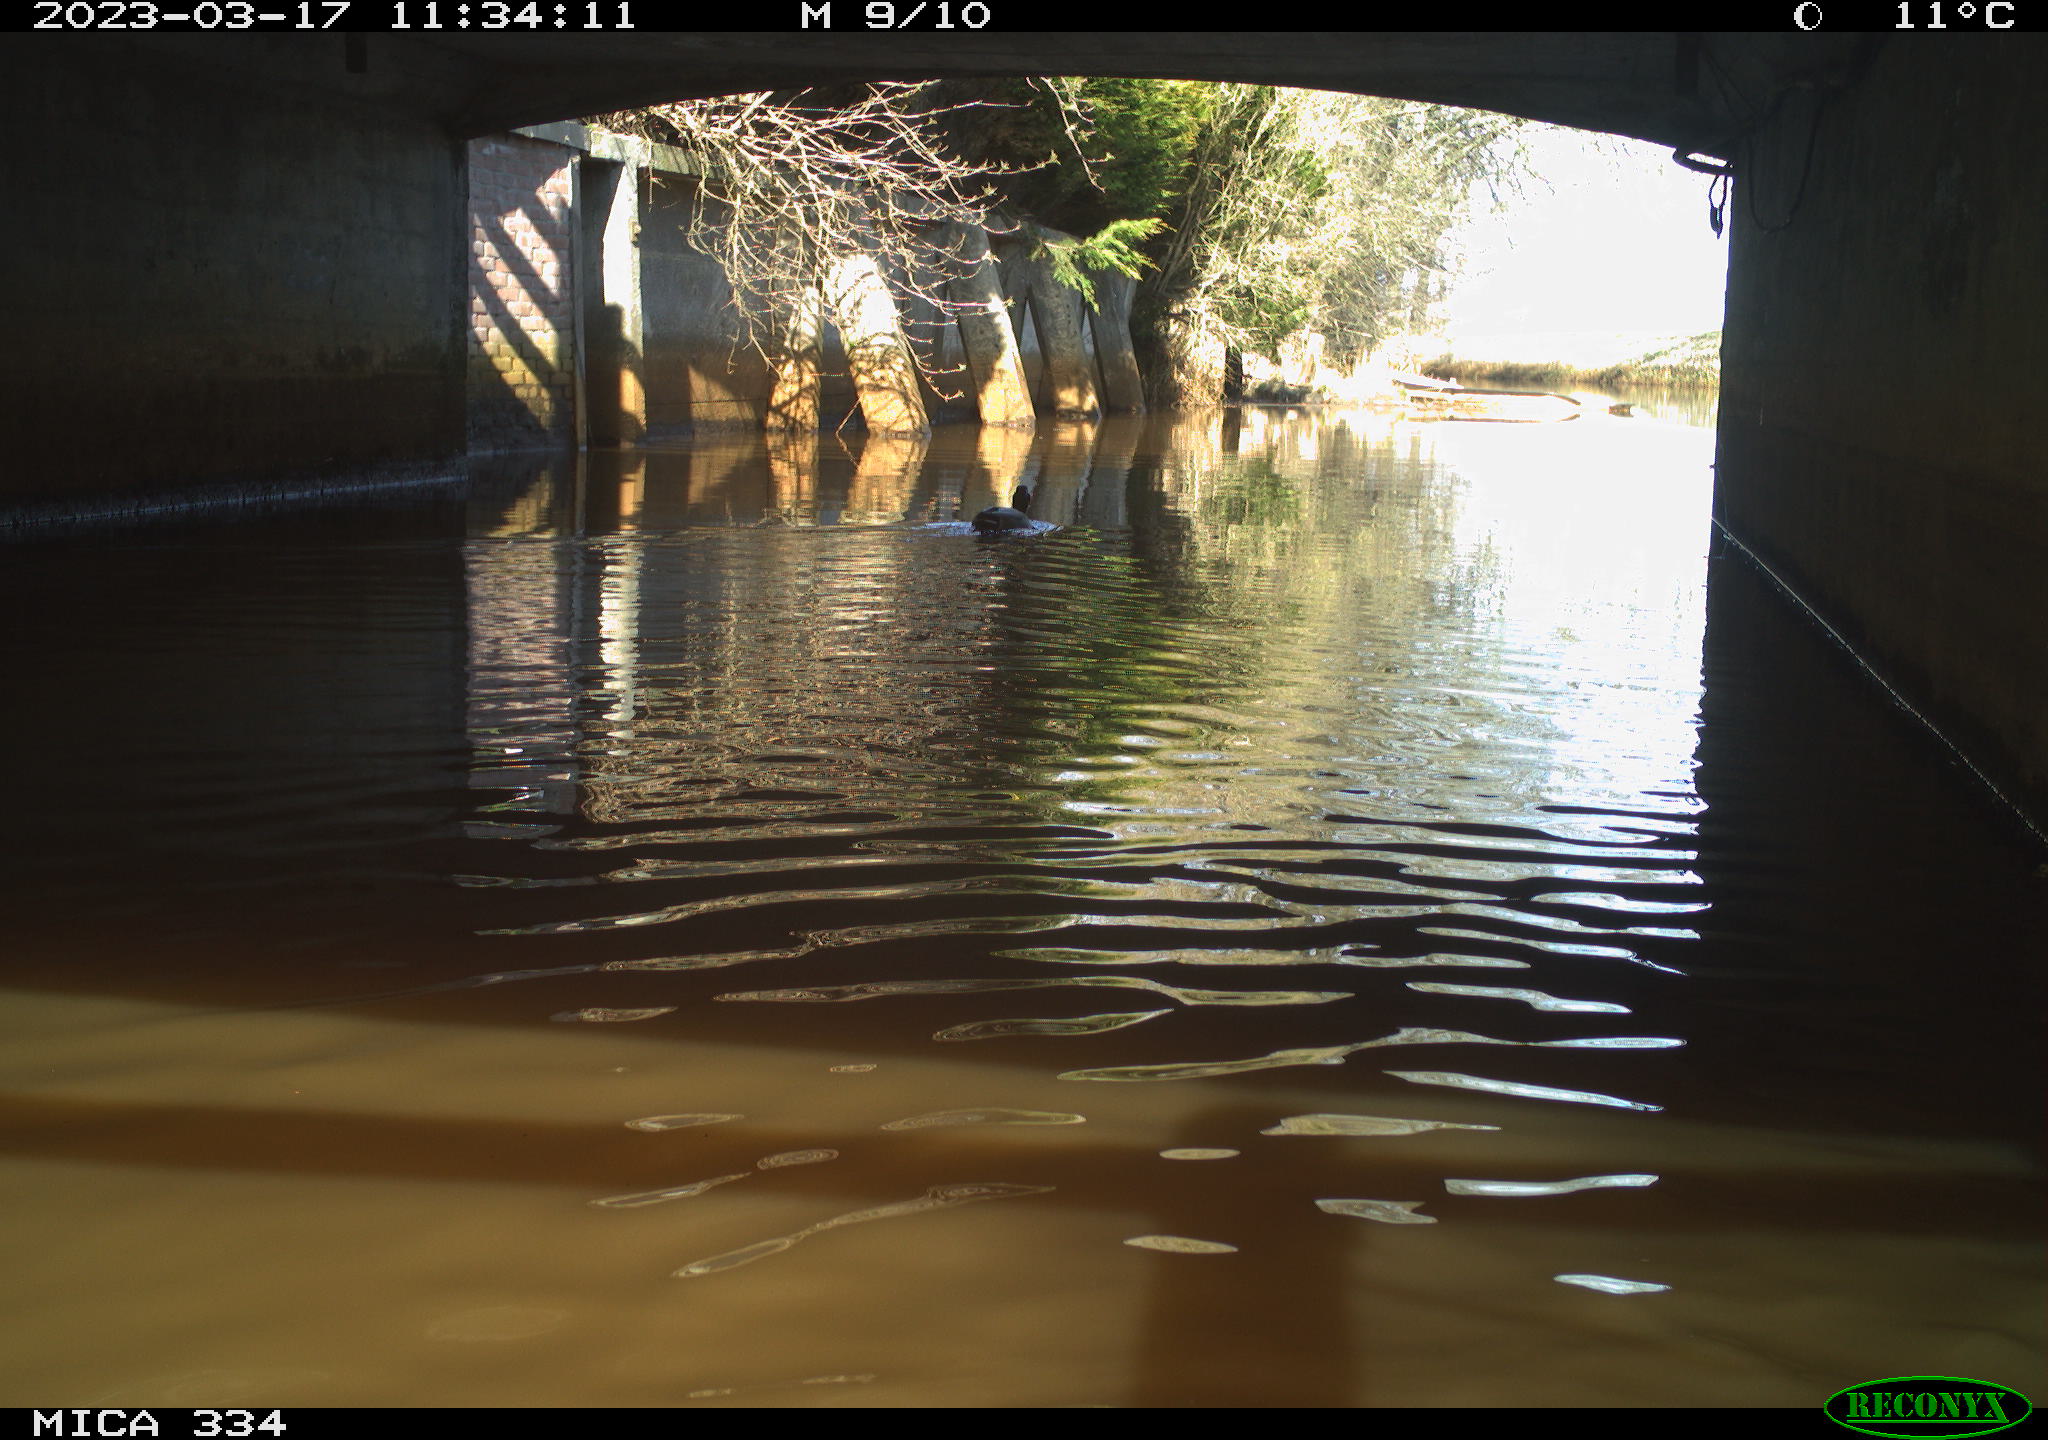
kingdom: Animalia
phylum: Chordata
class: Aves
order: Anseriformes
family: Anatidae
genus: Anas
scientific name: Anas
